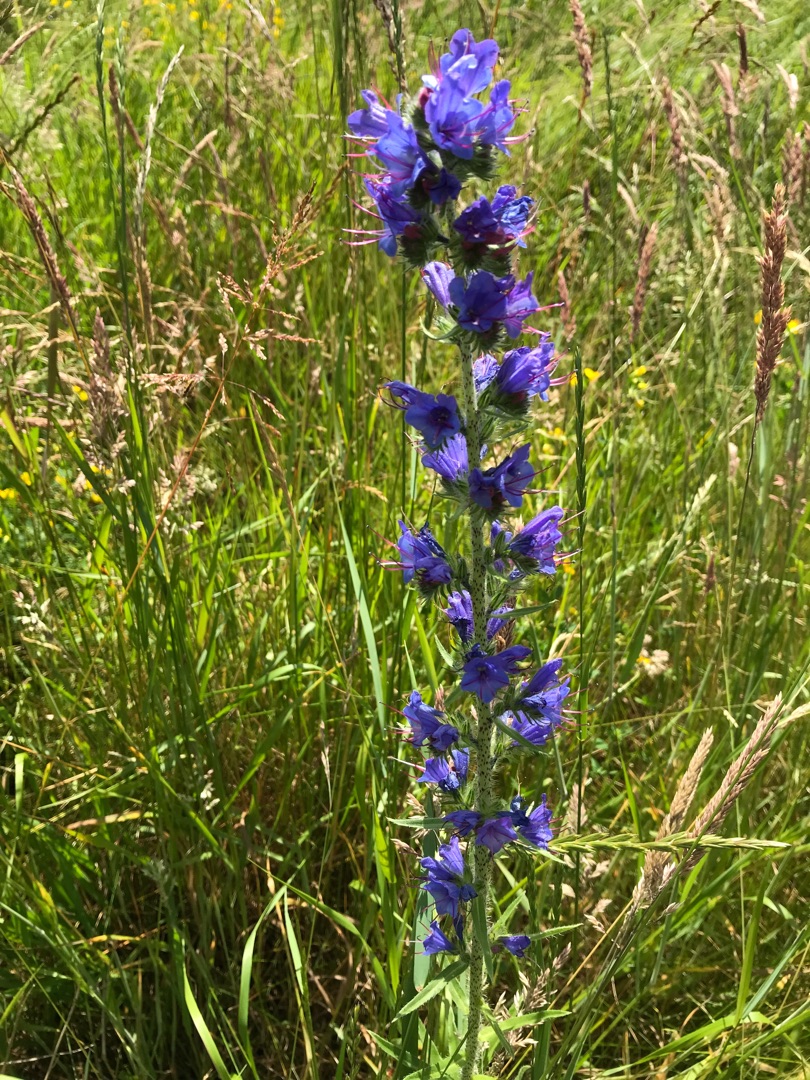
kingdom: Plantae
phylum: Tracheophyta
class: Magnoliopsida
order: Boraginales
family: Boraginaceae
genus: Echium
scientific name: Echium vulgare
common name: Slangehoved
